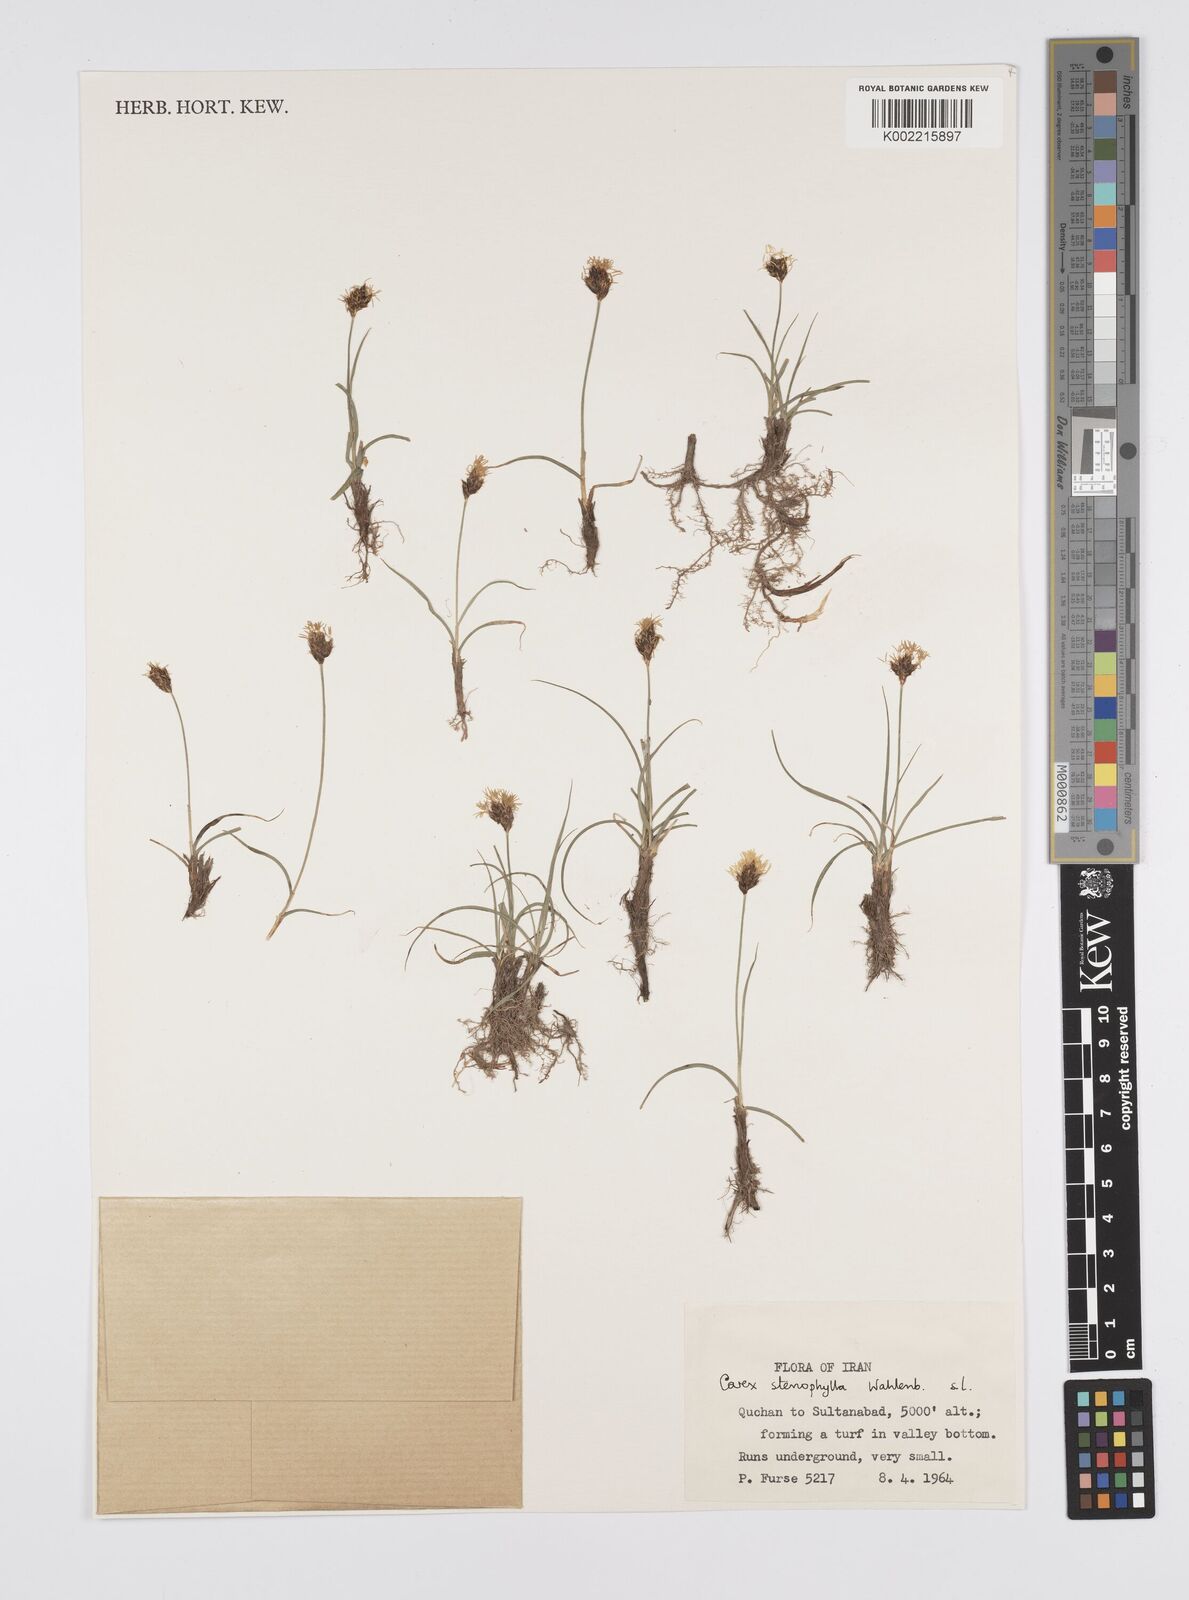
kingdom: Plantae
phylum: Tracheophyta
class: Liliopsida
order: Poales
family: Cyperaceae
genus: Carex
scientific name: Carex stenophylla
